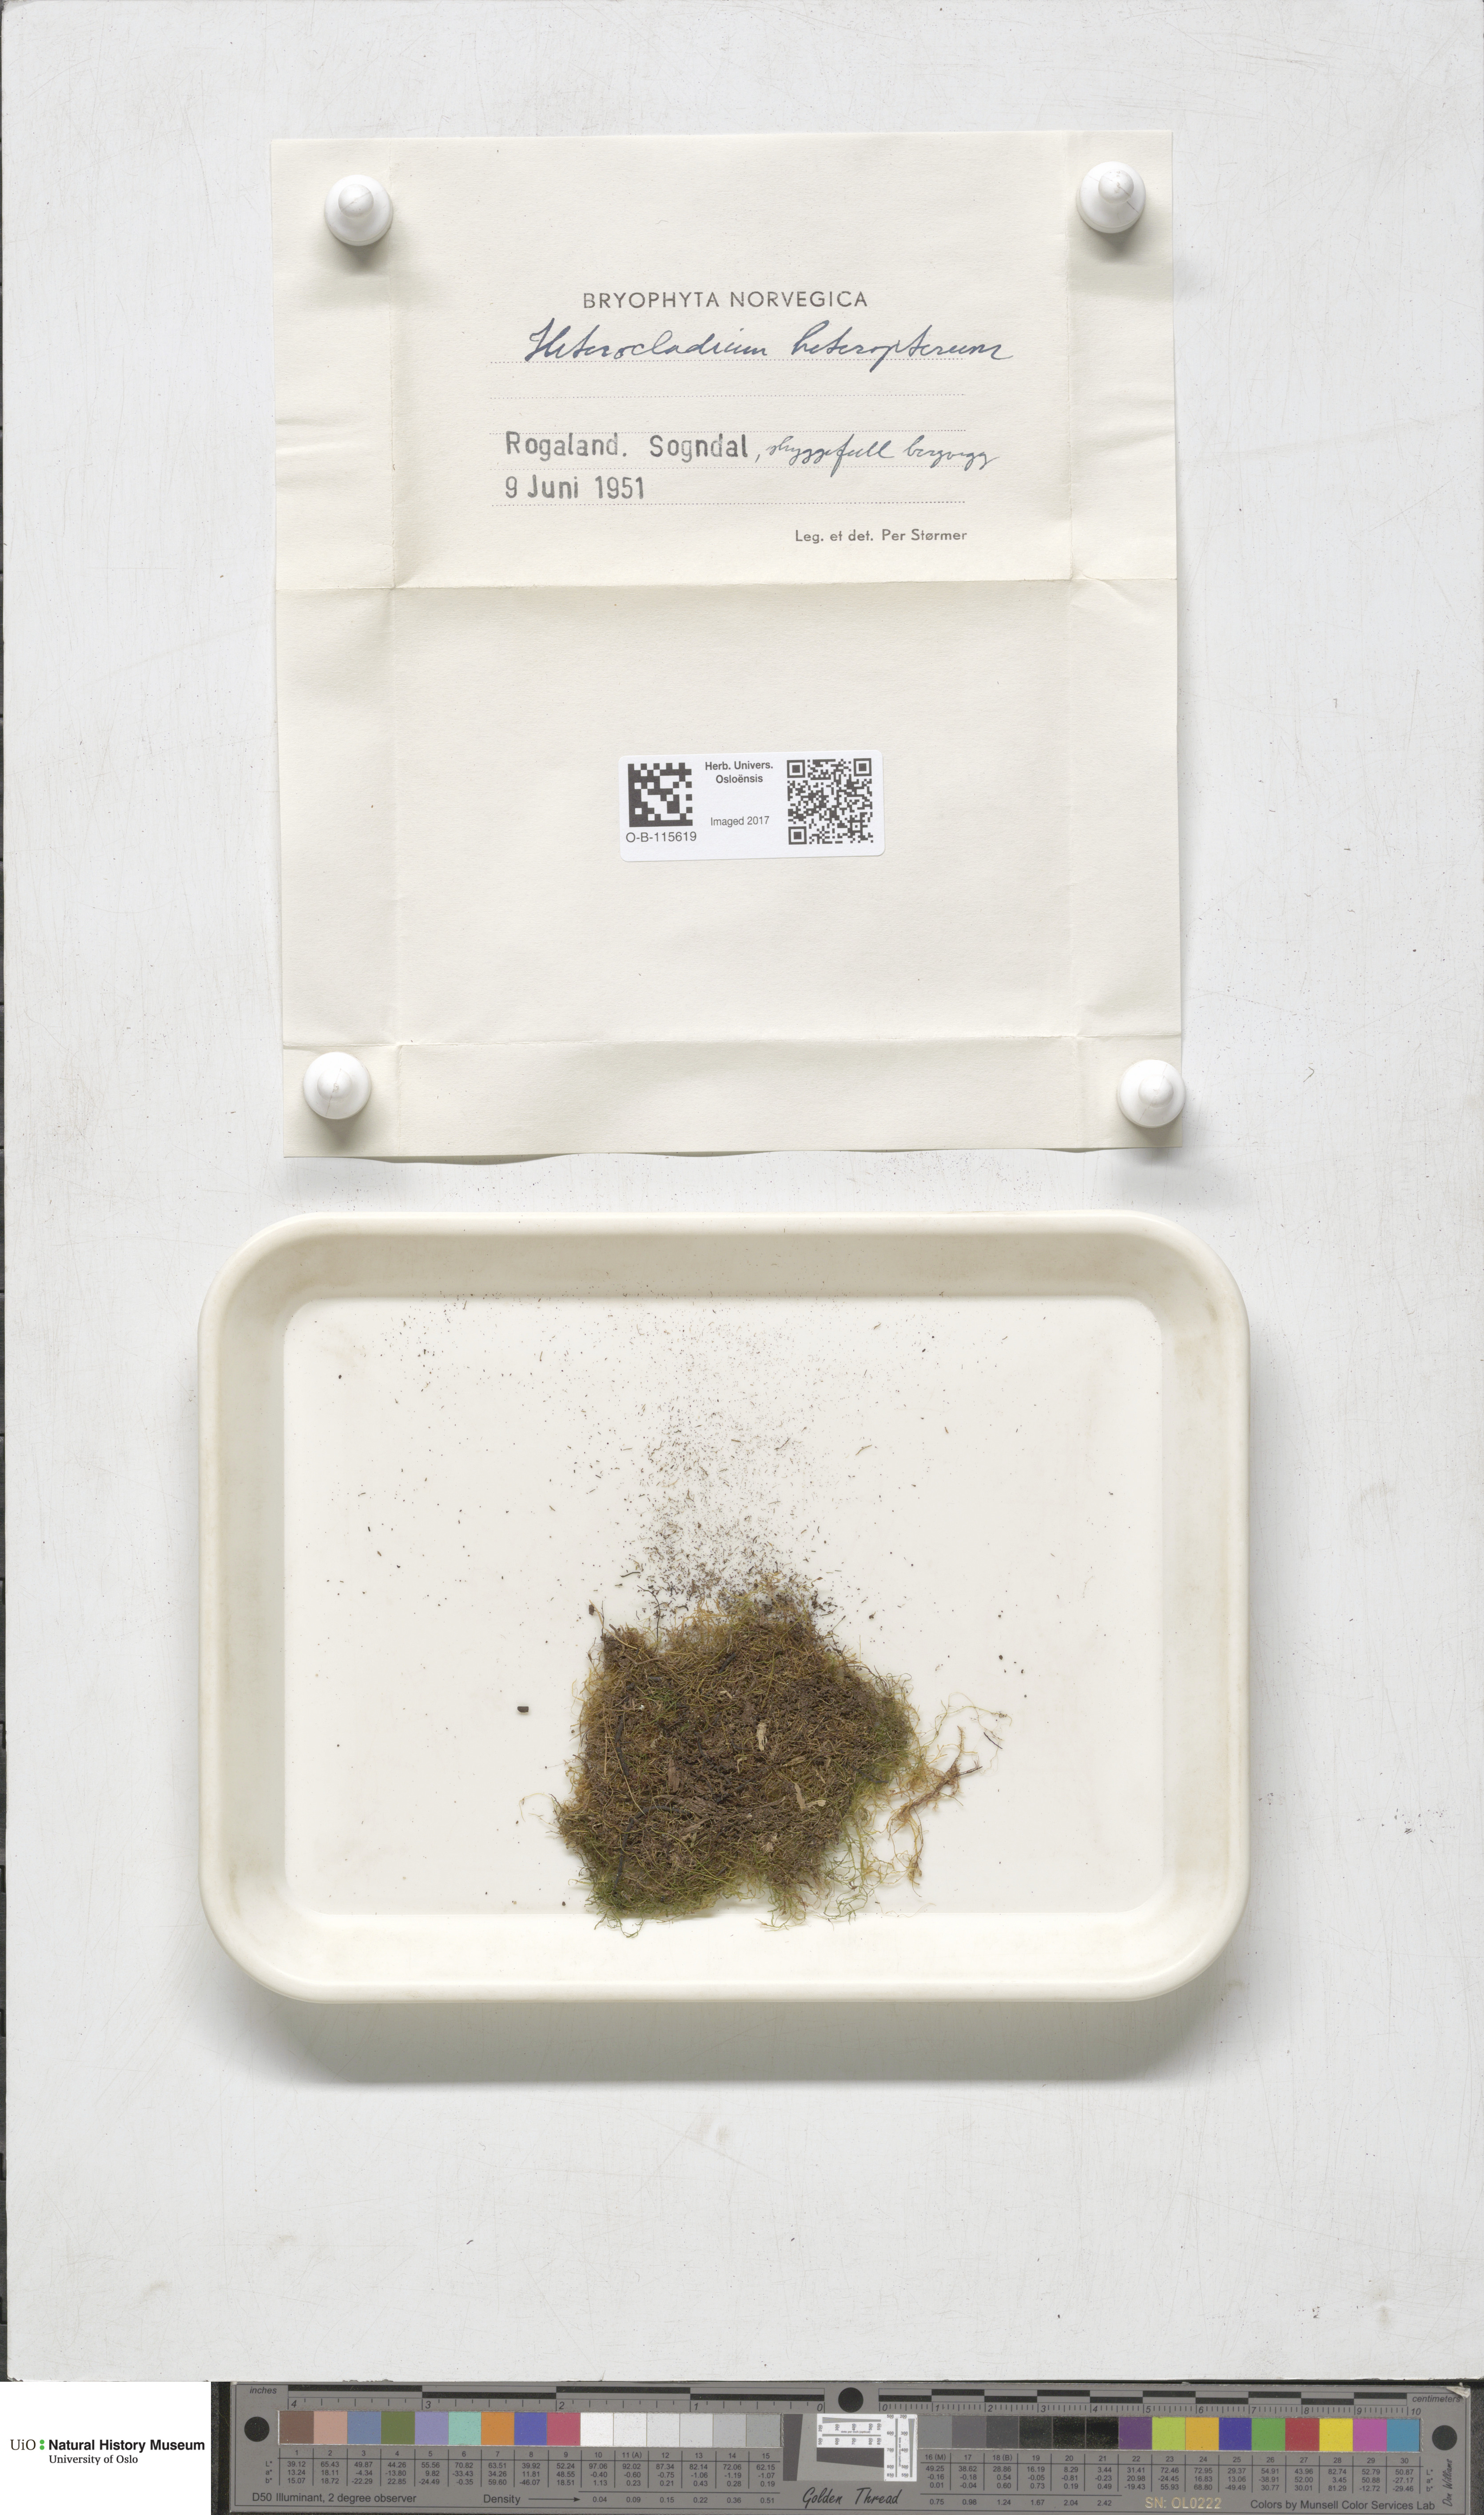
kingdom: Plantae
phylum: Bryophyta
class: Bryopsida
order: Hypnales
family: Lembophyllaceae
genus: Heterocladium
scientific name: Heterocladium heteropterum
